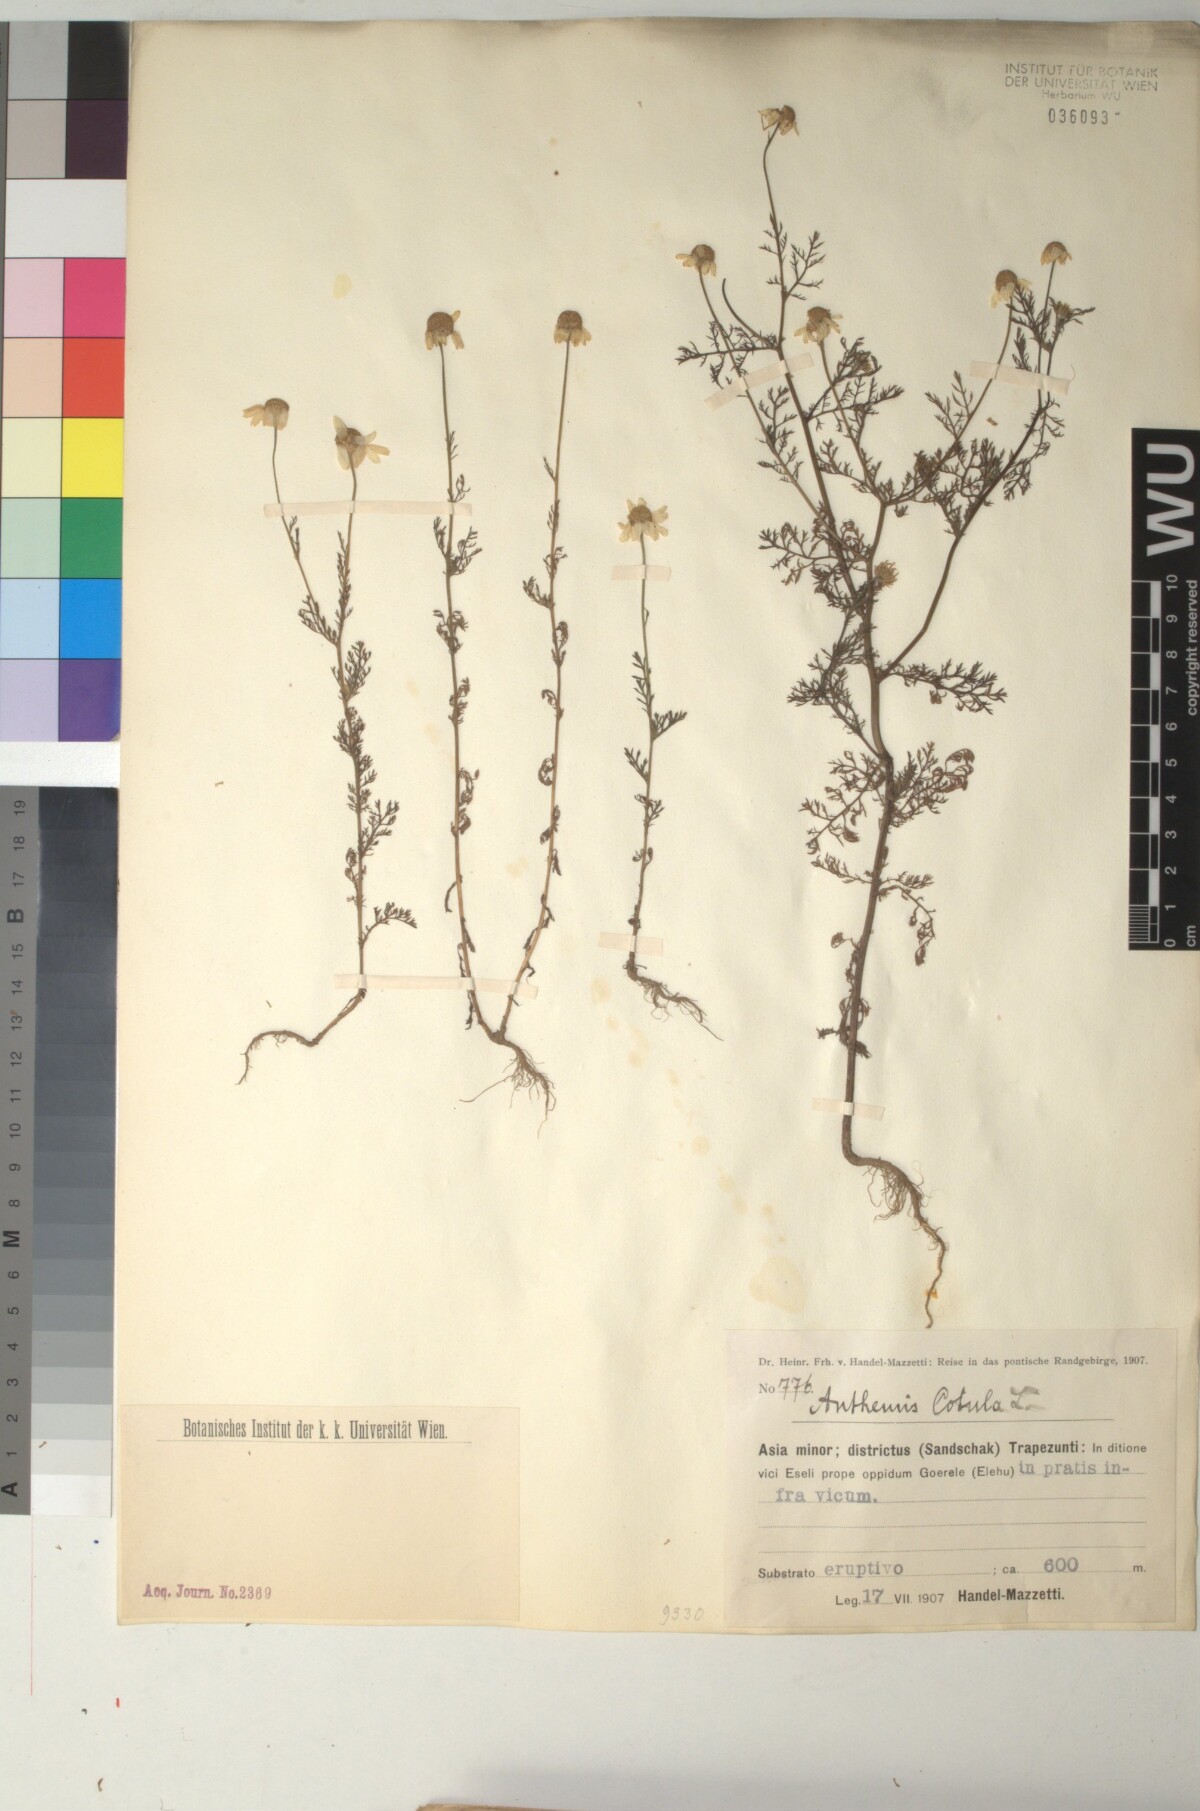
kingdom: Plantae
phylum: Tracheophyta
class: Magnoliopsida
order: Asterales
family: Asteraceae
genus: Anthemis
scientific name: Anthemis cotula
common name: Stinking chamomile
